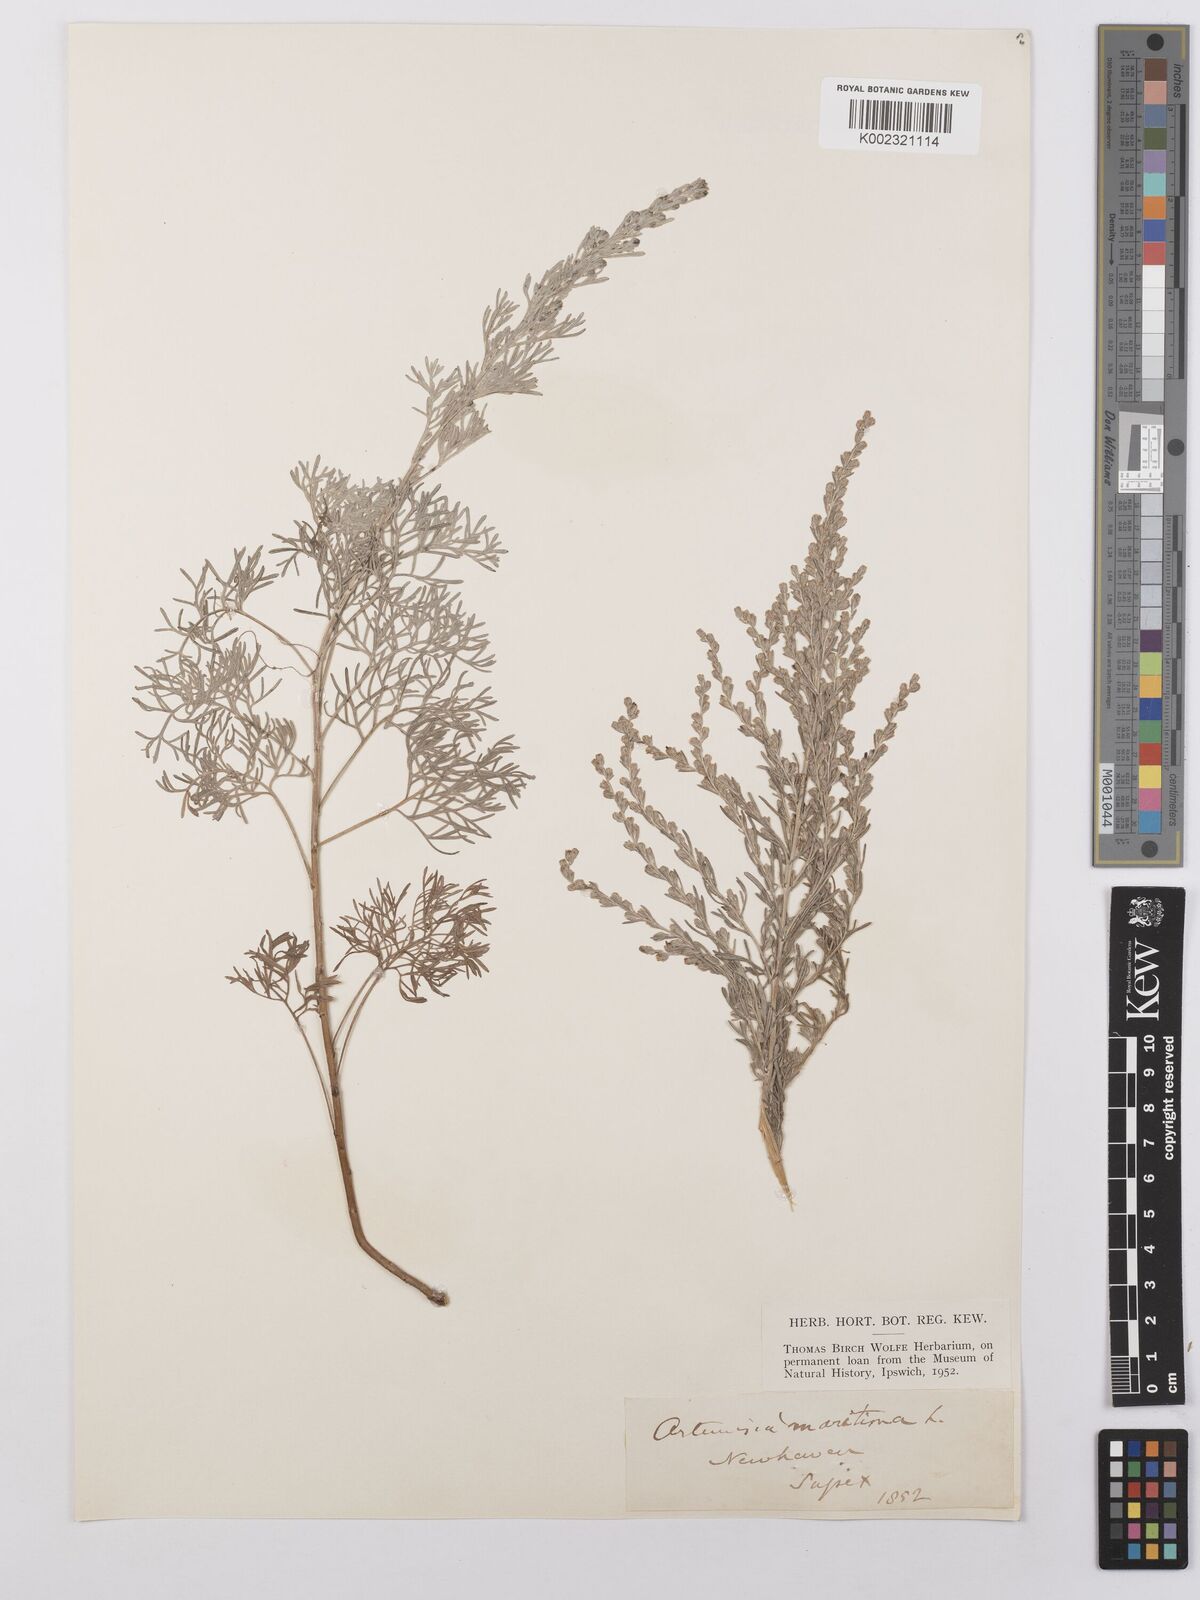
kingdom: Plantae
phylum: Tracheophyta
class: Magnoliopsida
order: Asterales
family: Asteraceae
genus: Artemisia
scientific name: Artemisia maritima
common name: Wormseed
